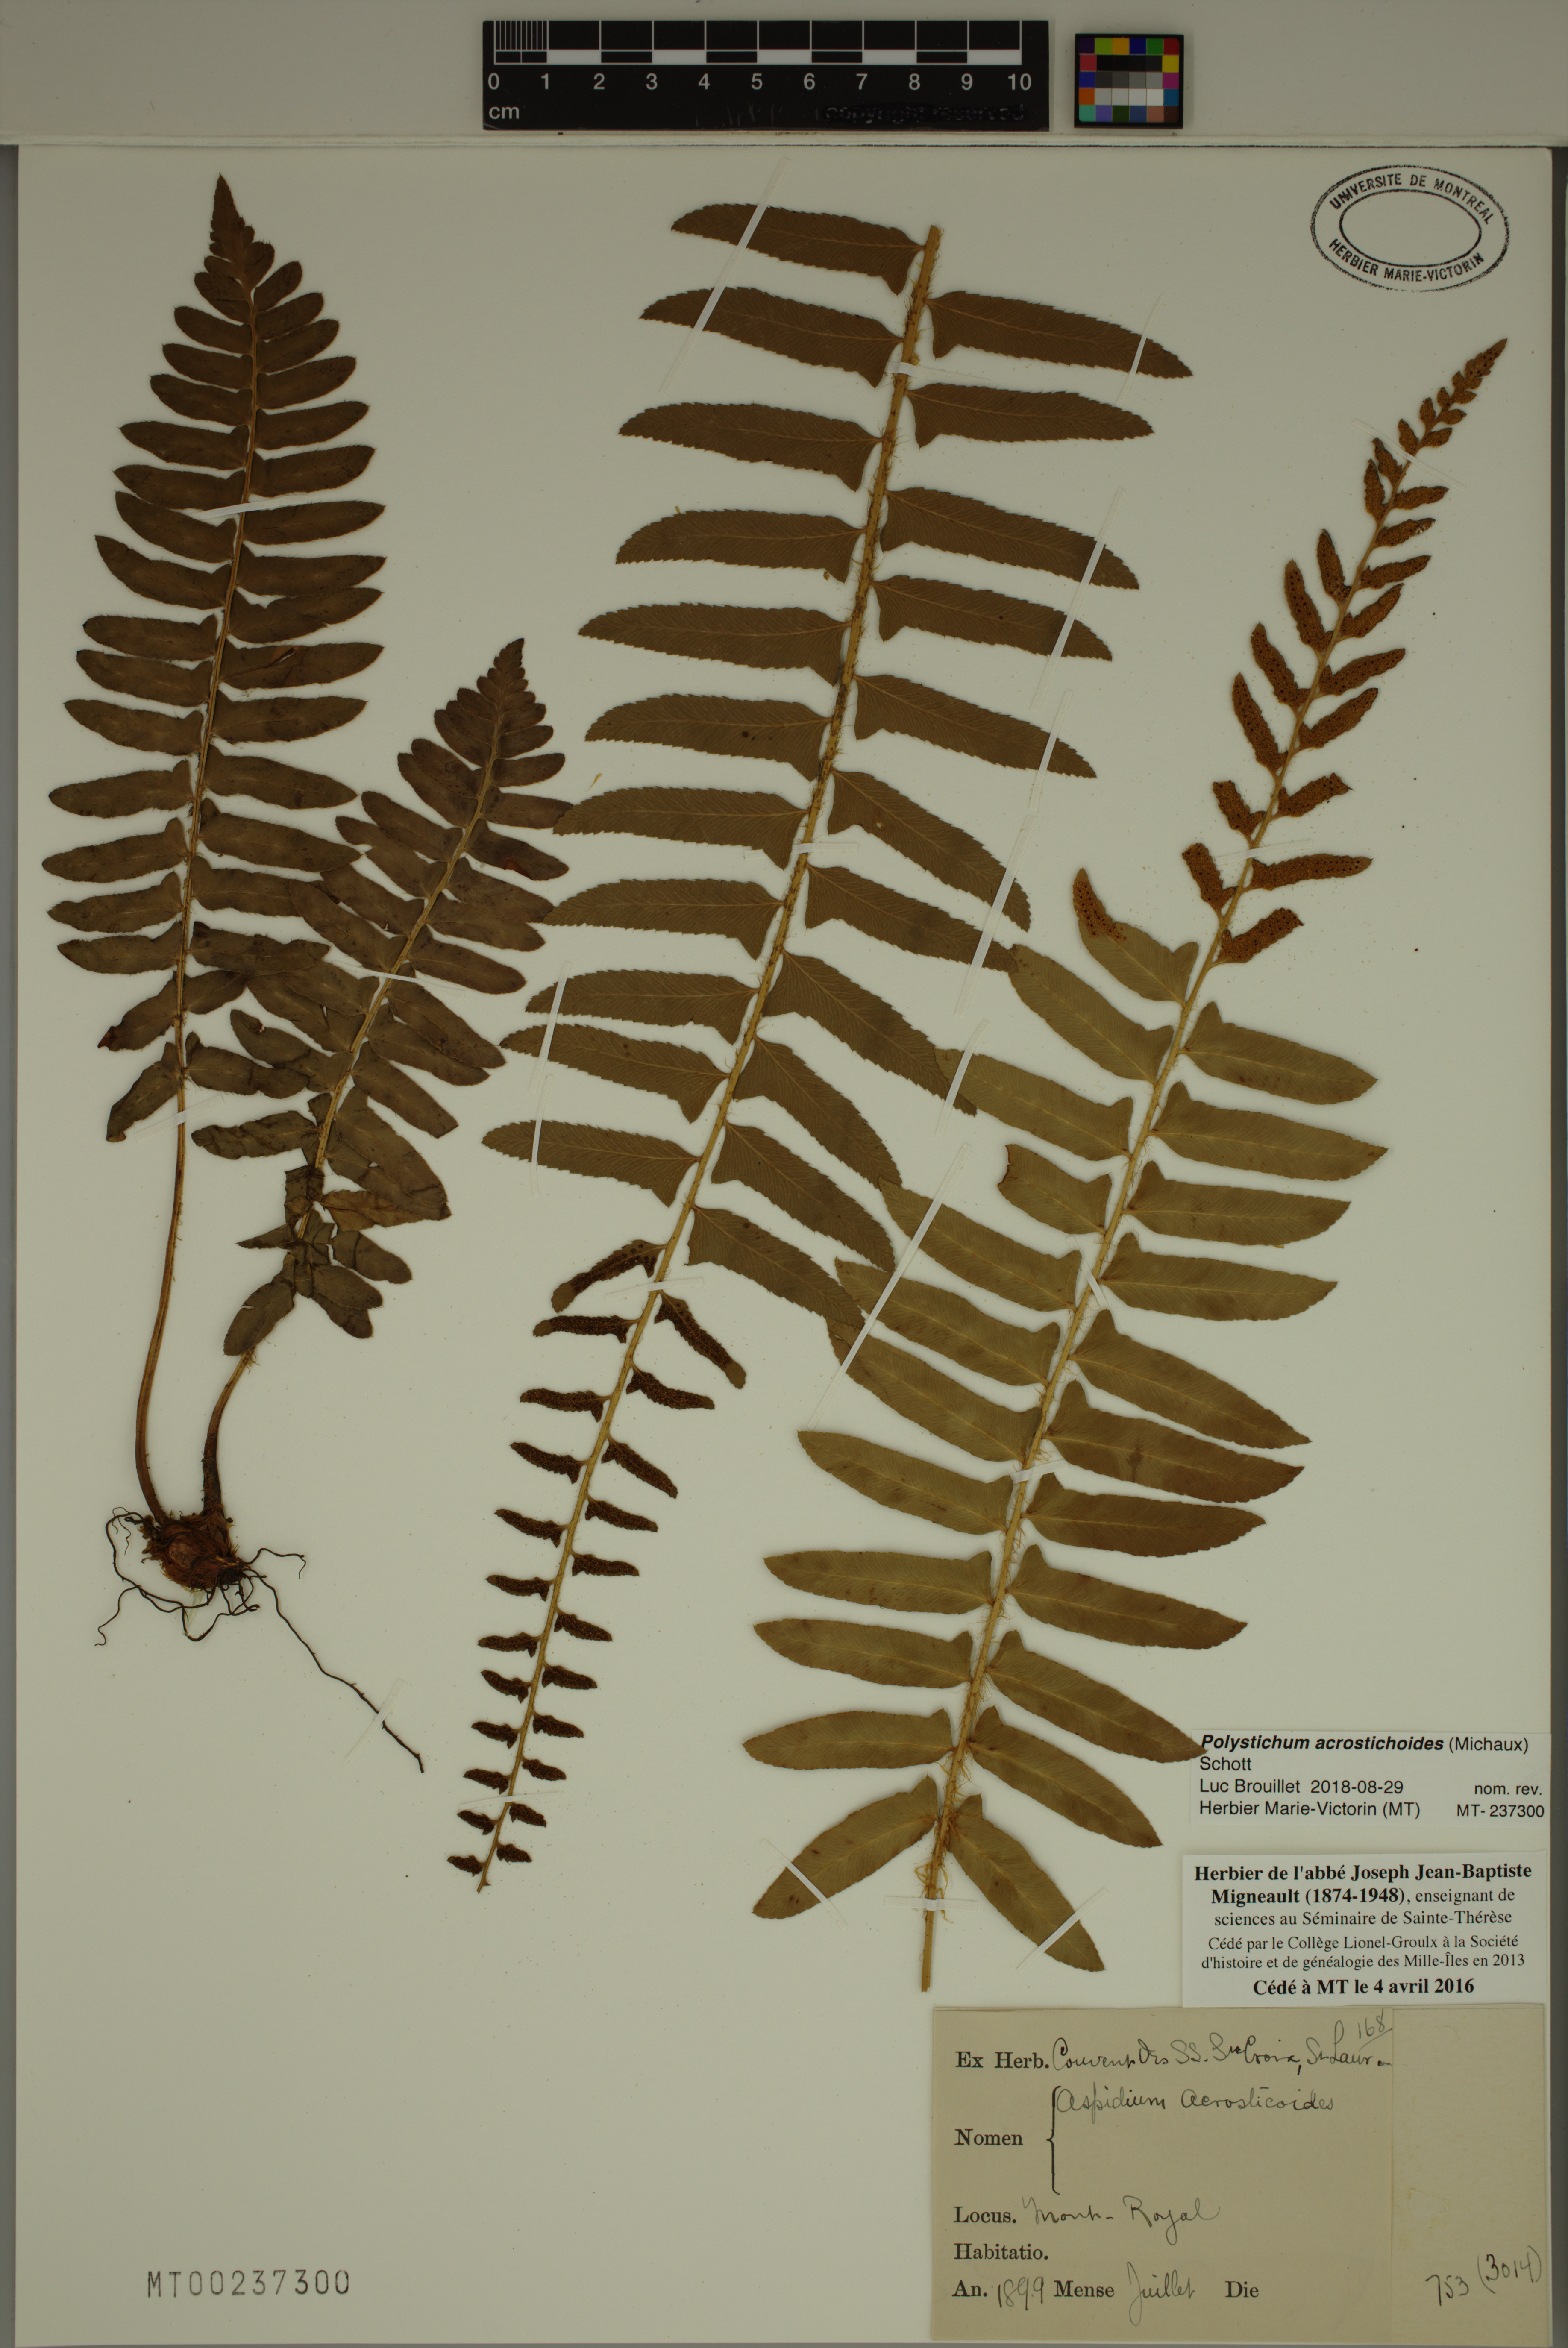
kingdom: Plantae
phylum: Tracheophyta
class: Polypodiopsida
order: Polypodiales
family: Dryopteridaceae
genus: Polystichum
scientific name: Polystichum acrostichoides
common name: Christmas fern
